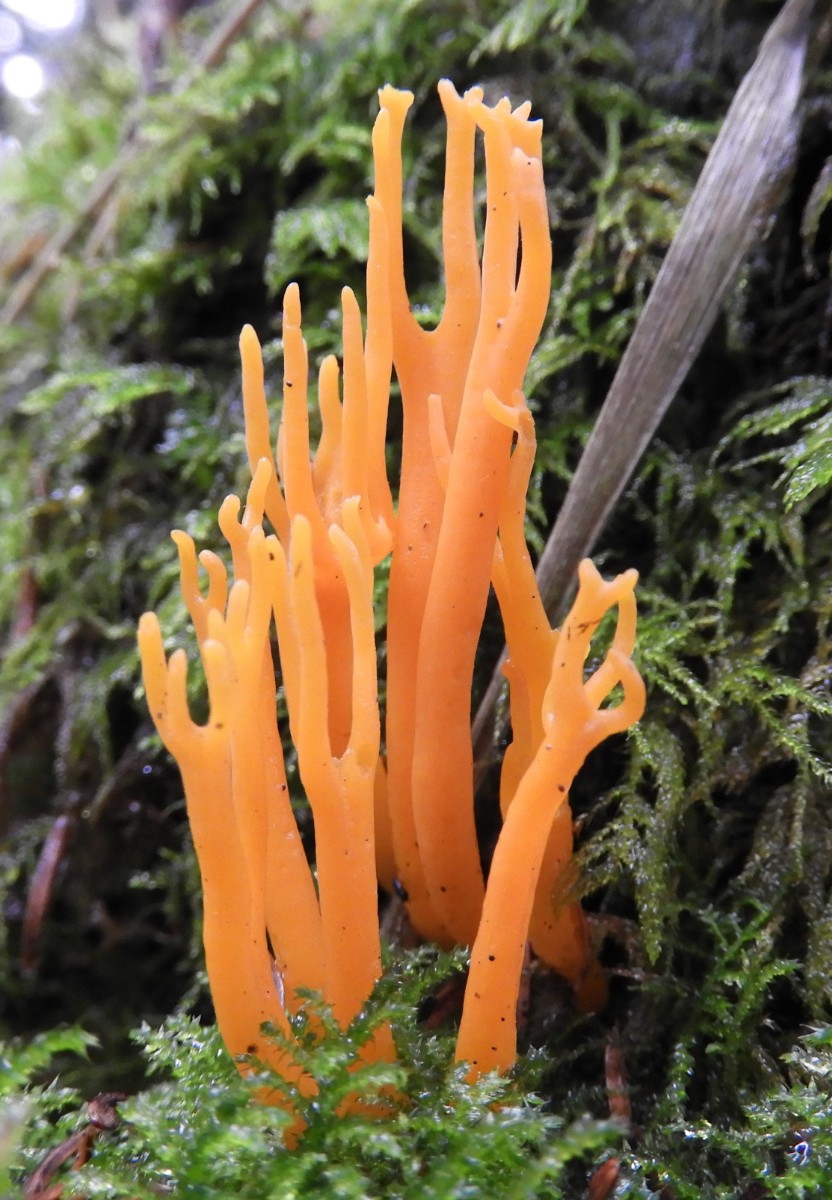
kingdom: Fungi
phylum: Basidiomycota
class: Dacrymycetes
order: Dacrymycetales
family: Dacrymycetaceae
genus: Calocera
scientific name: Calocera viscosa
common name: almindelig guldgaffel
